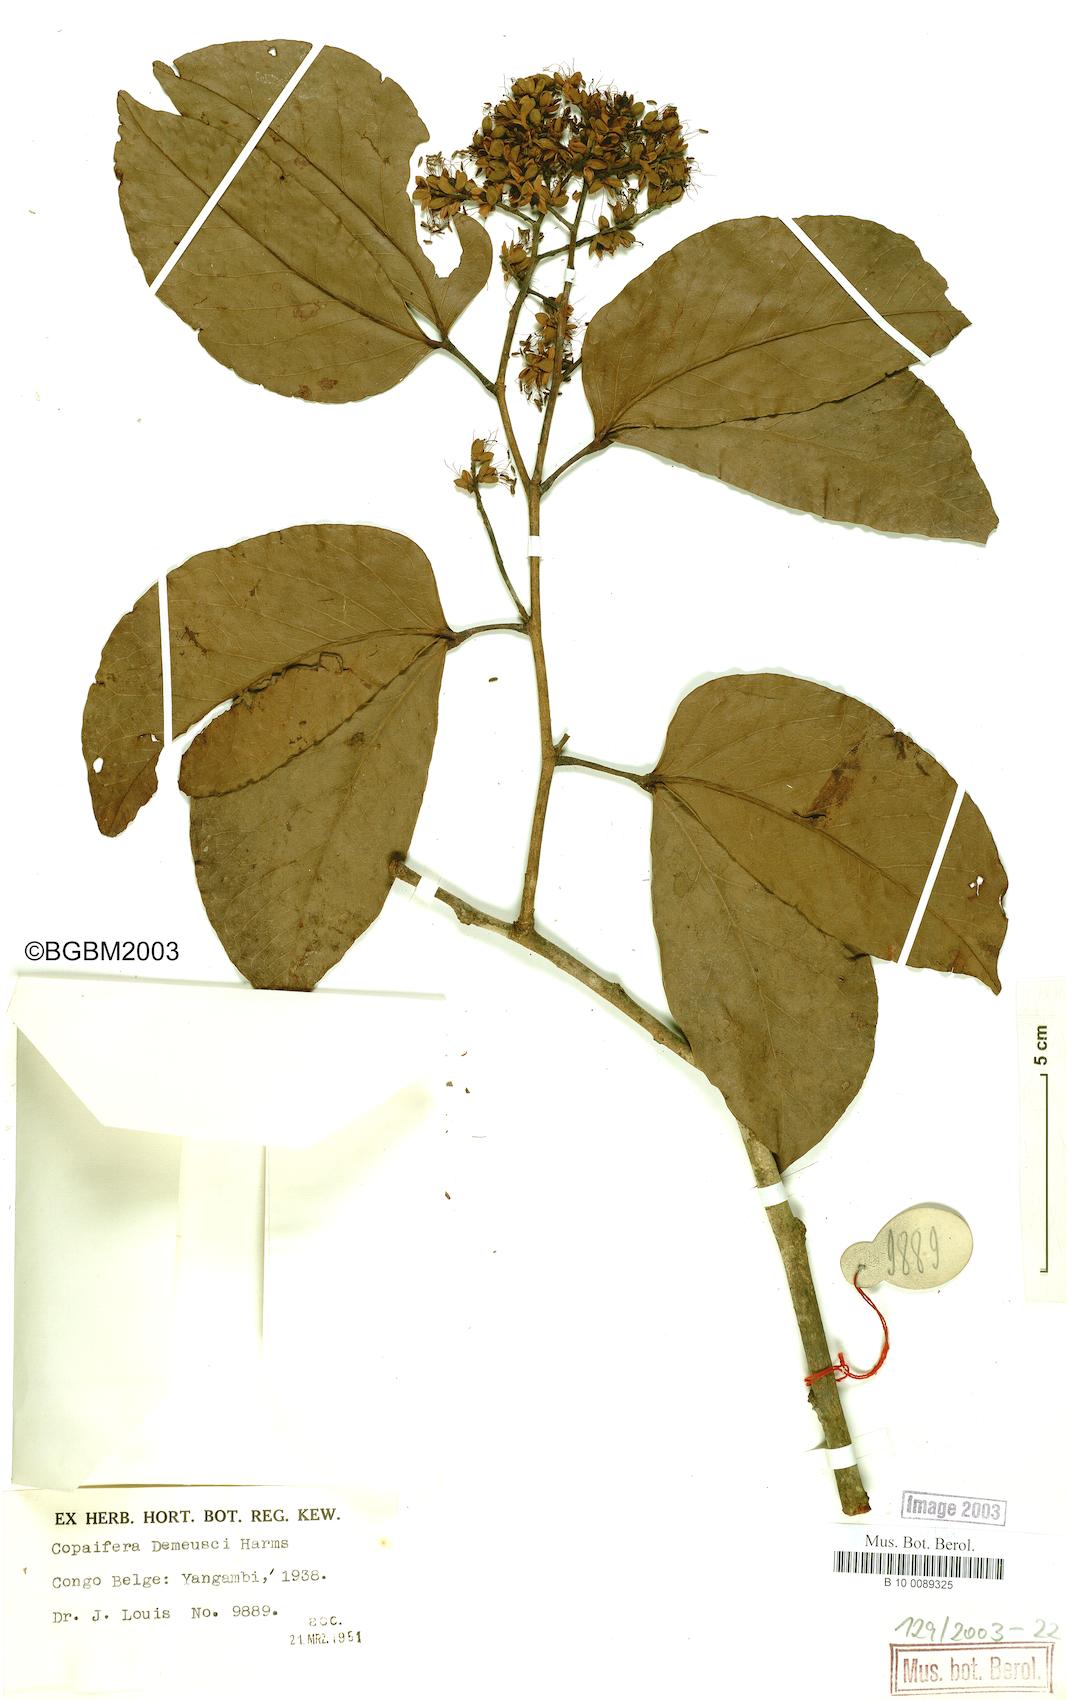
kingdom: Plantae
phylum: Tracheophyta
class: Magnoliopsida
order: Fabales
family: Fabaceae
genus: Guibourtia
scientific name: Guibourtia demeusei
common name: African rosewood
